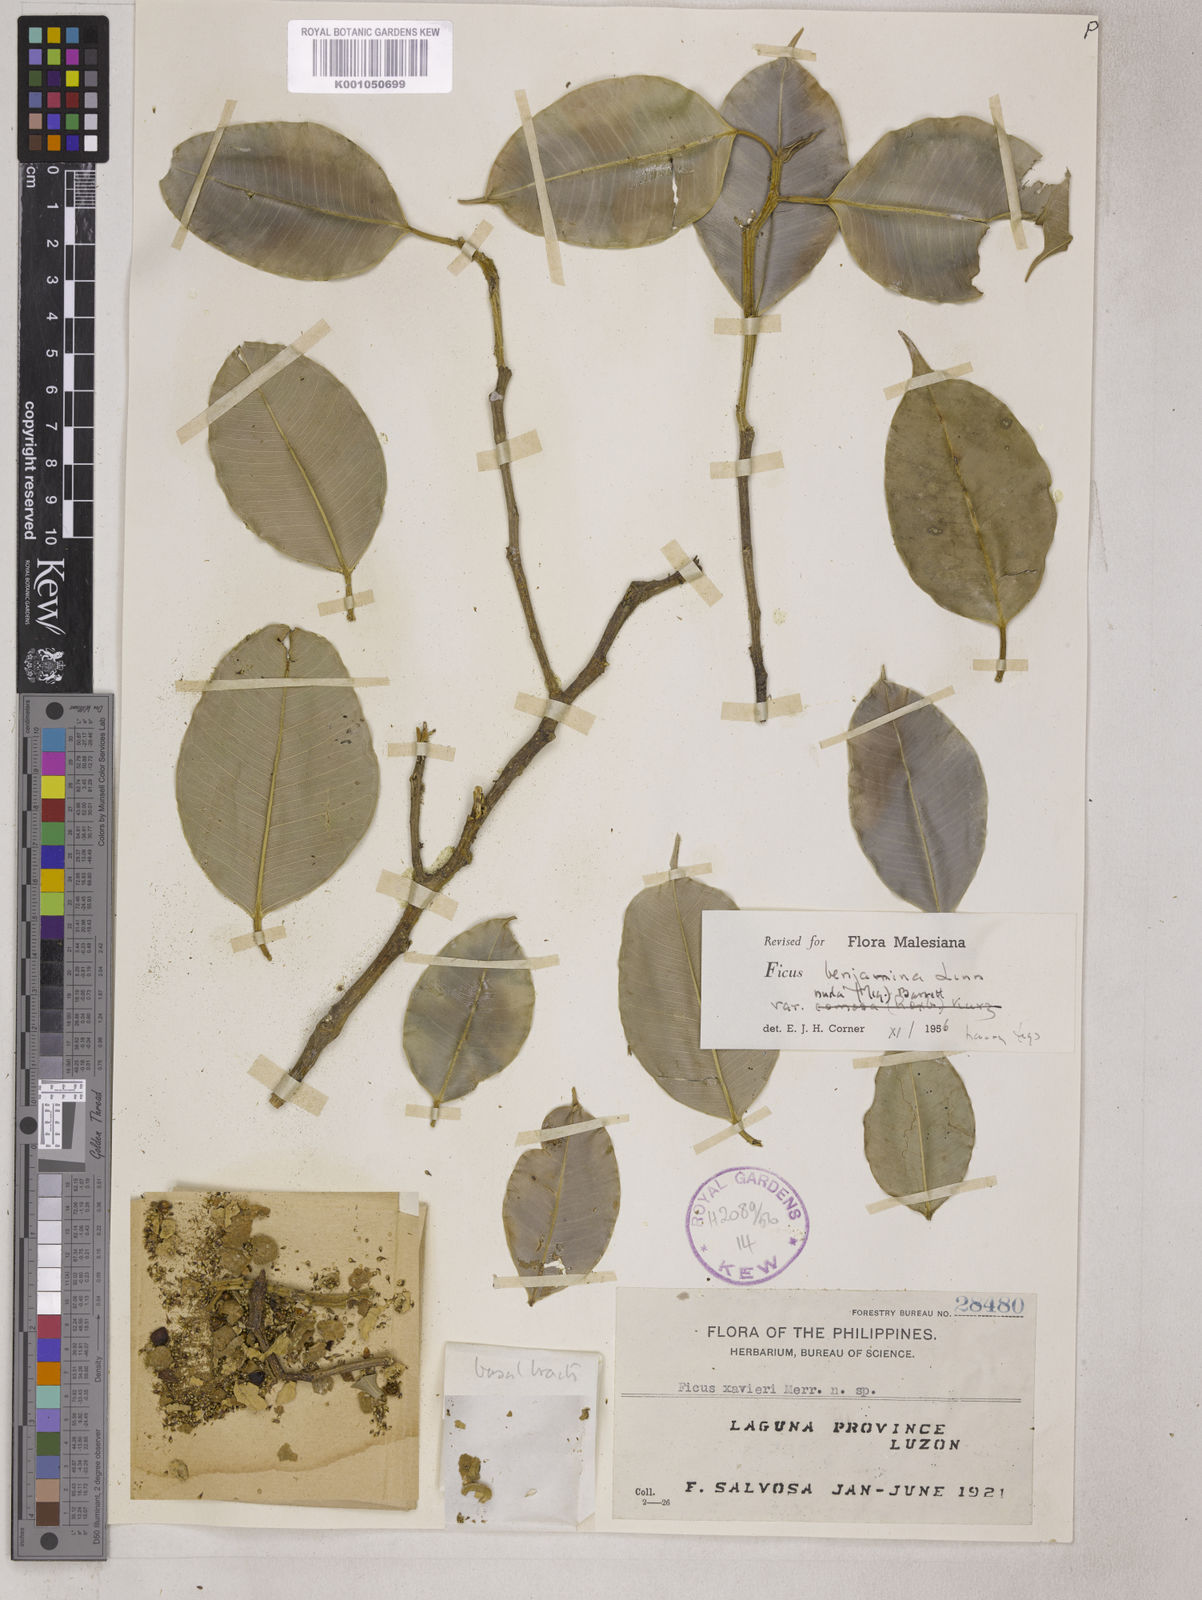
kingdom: Plantae
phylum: Tracheophyta
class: Magnoliopsida
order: Rosales
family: Moraceae
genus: Ficus
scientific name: Ficus benjamina
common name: Weeping fig
